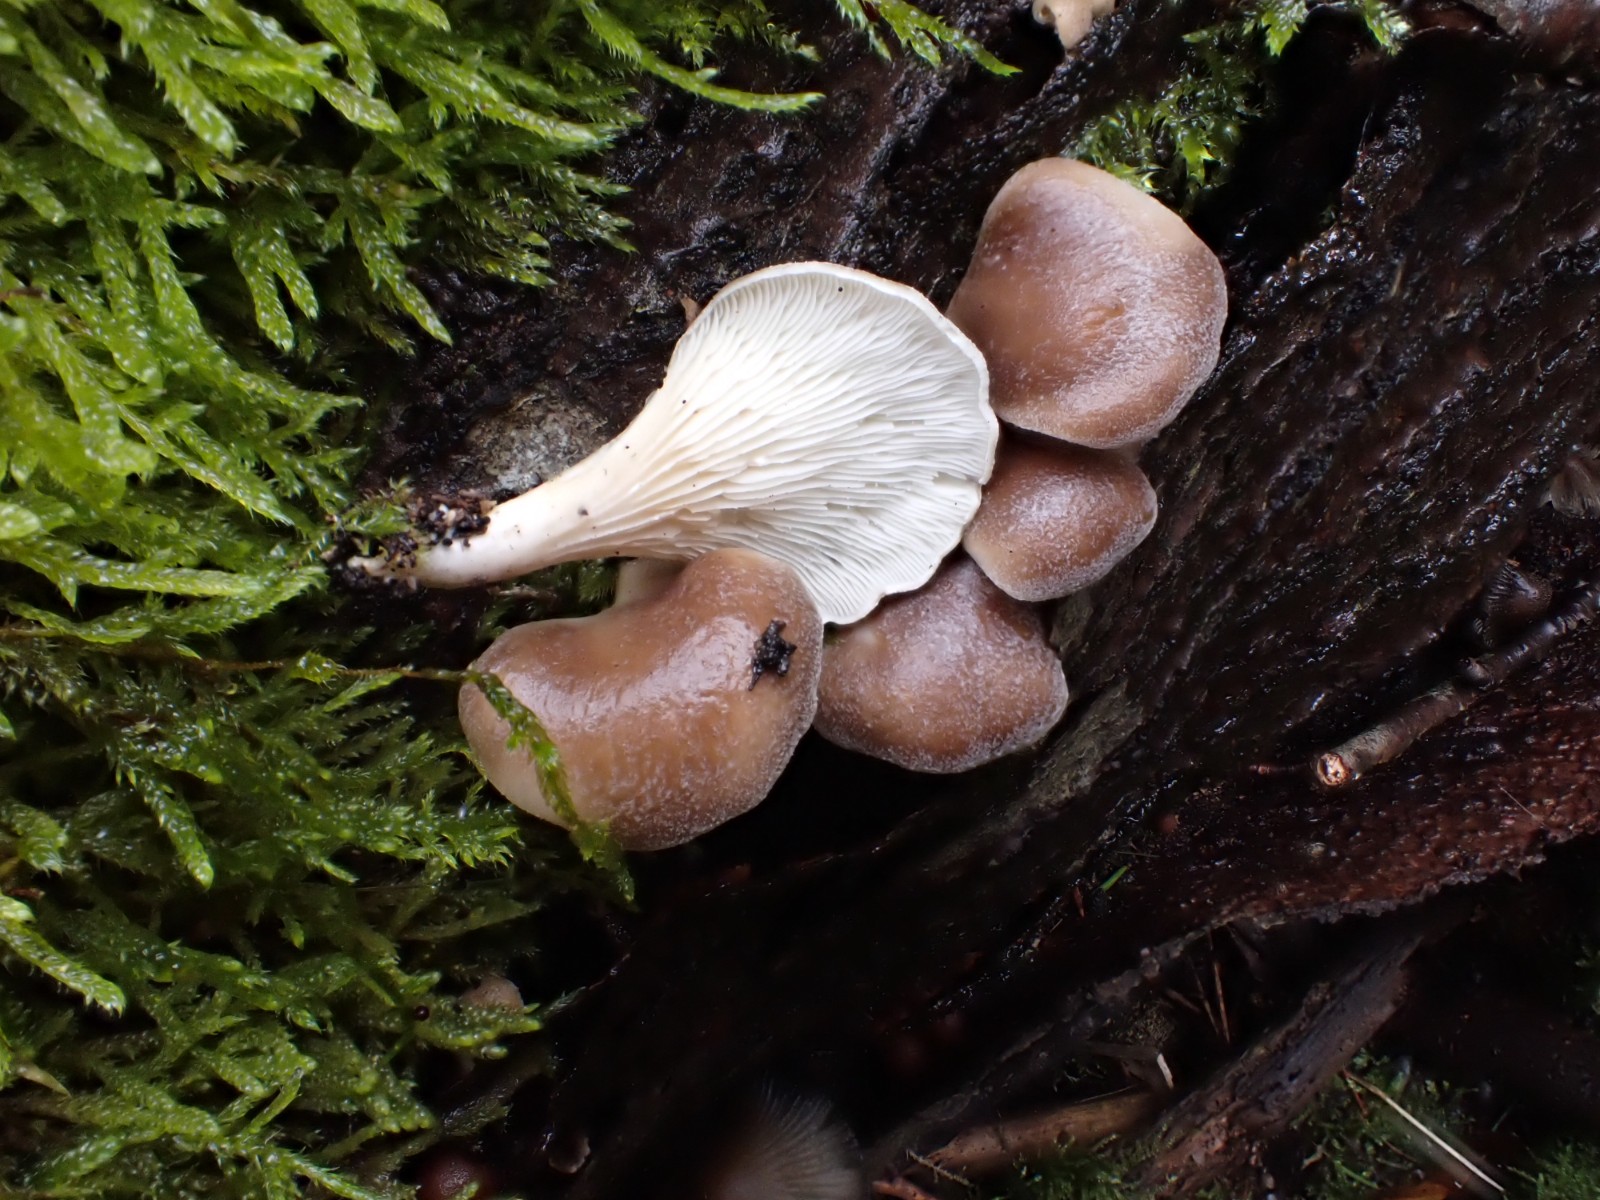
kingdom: Fungi
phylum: Basidiomycota
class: Agaricomycetes
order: Agaricales
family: Pleurotaceae
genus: Hohenbuehelia
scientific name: Hohenbuehelia auriscalpium
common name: spatel-filthat
